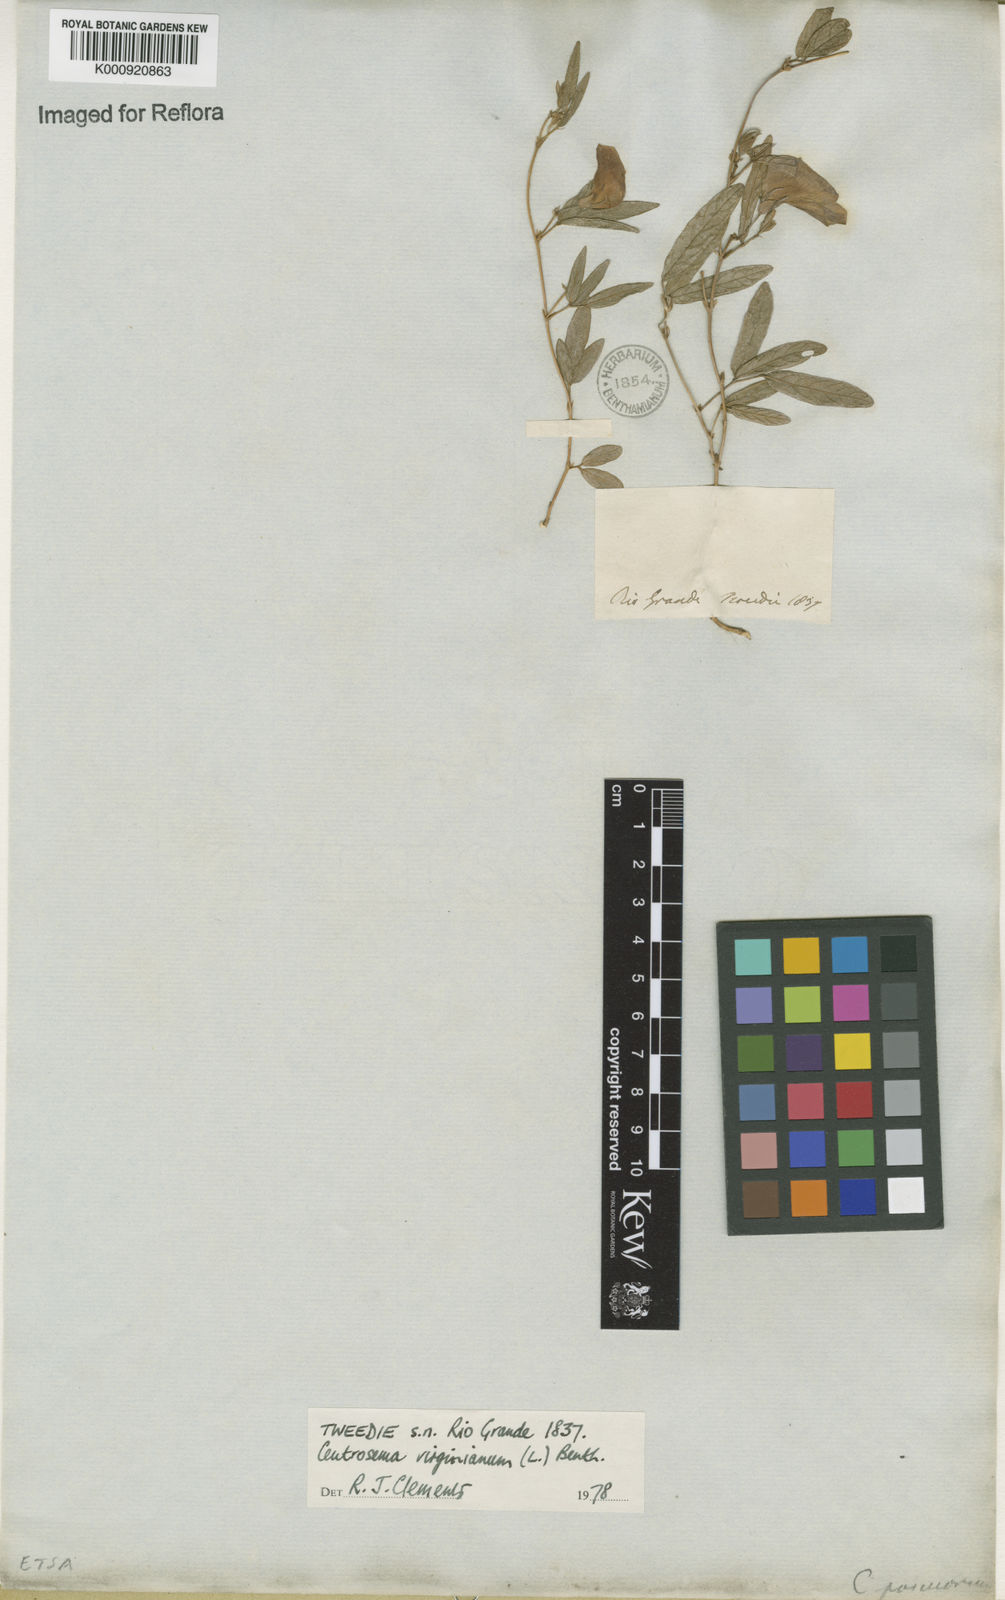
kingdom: Plantae
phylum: Tracheophyta
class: Magnoliopsida
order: Fabales
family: Fabaceae
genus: Centrosema
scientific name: Centrosema virginianum
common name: Butterfly-pea
